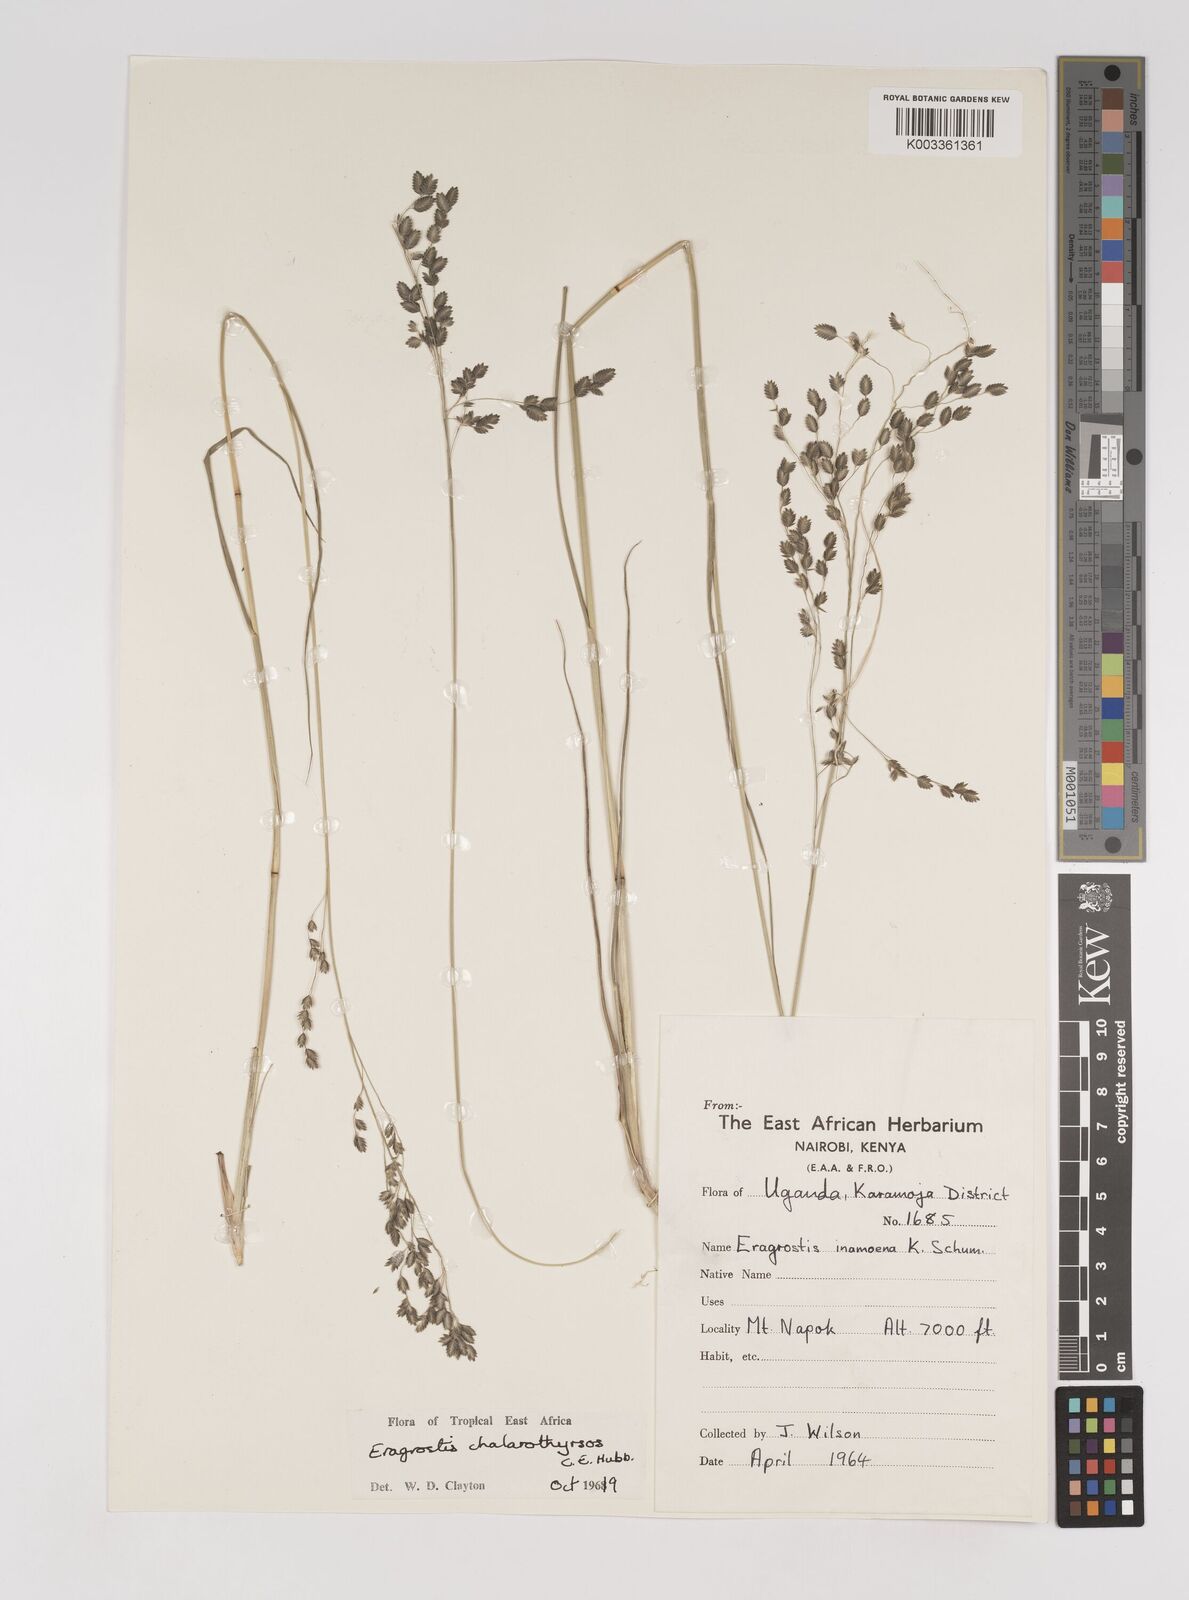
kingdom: Plantae
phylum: Tracheophyta
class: Liliopsida
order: Poales
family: Poaceae
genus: Eragrostis
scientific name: Eragrostis chalarothyrsos
